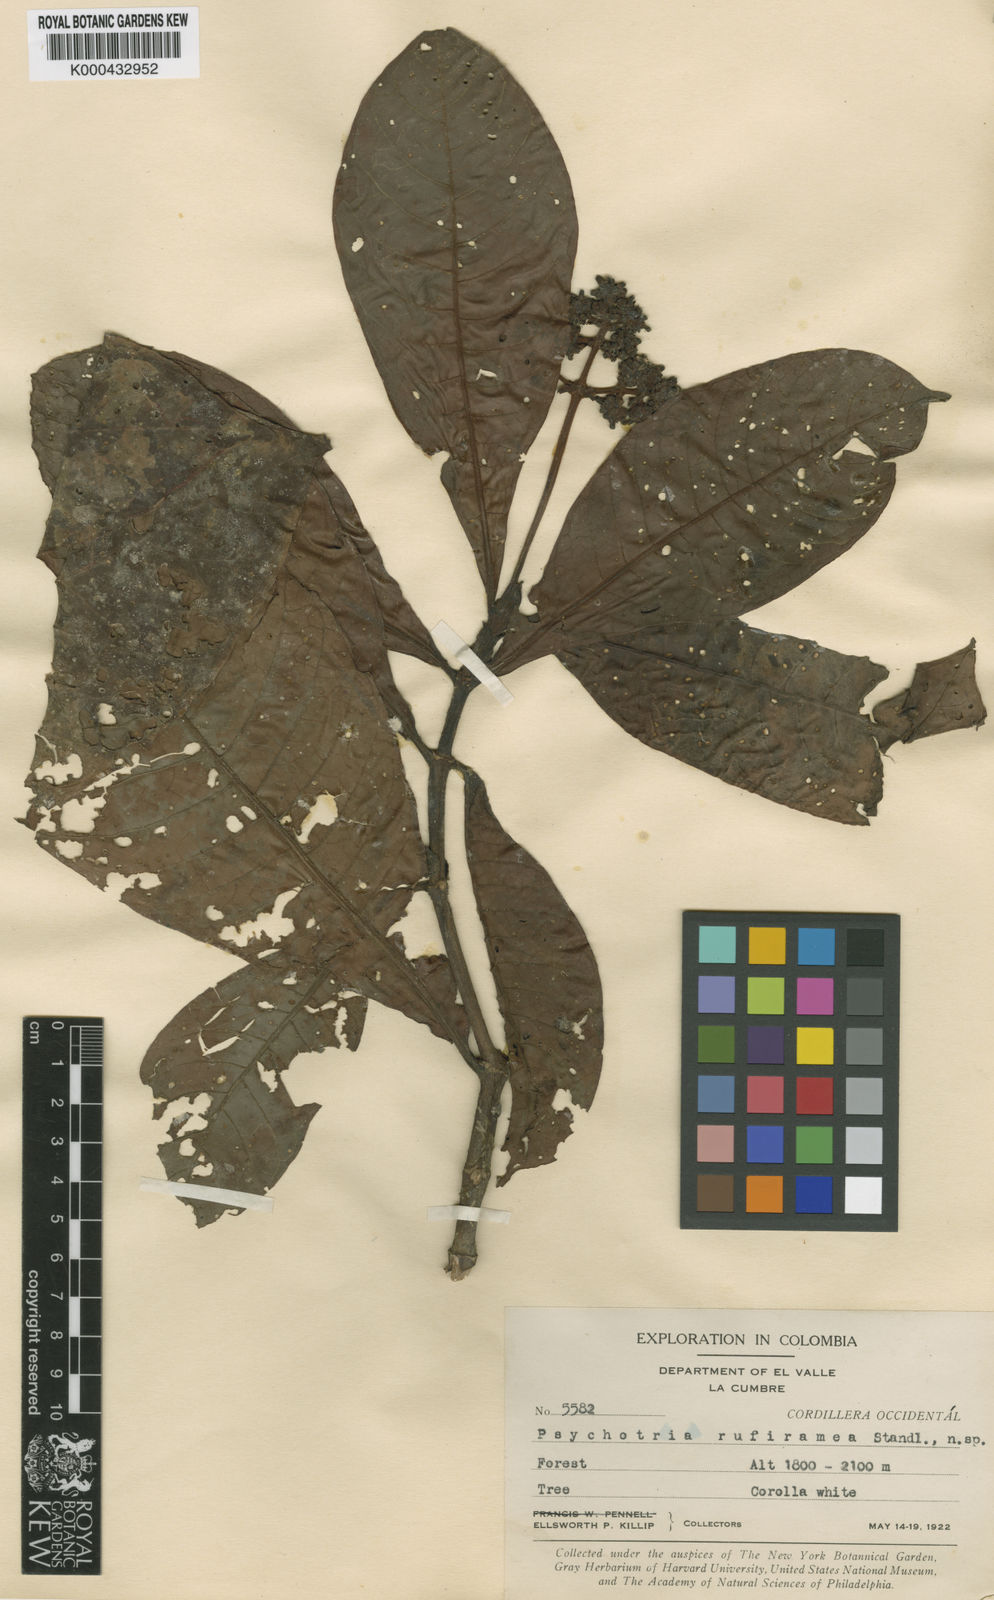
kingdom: Plantae
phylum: Tracheophyta
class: Magnoliopsida
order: Gentianales
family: Rubiaceae
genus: Psychotria
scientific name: Psychotria rufiramea
